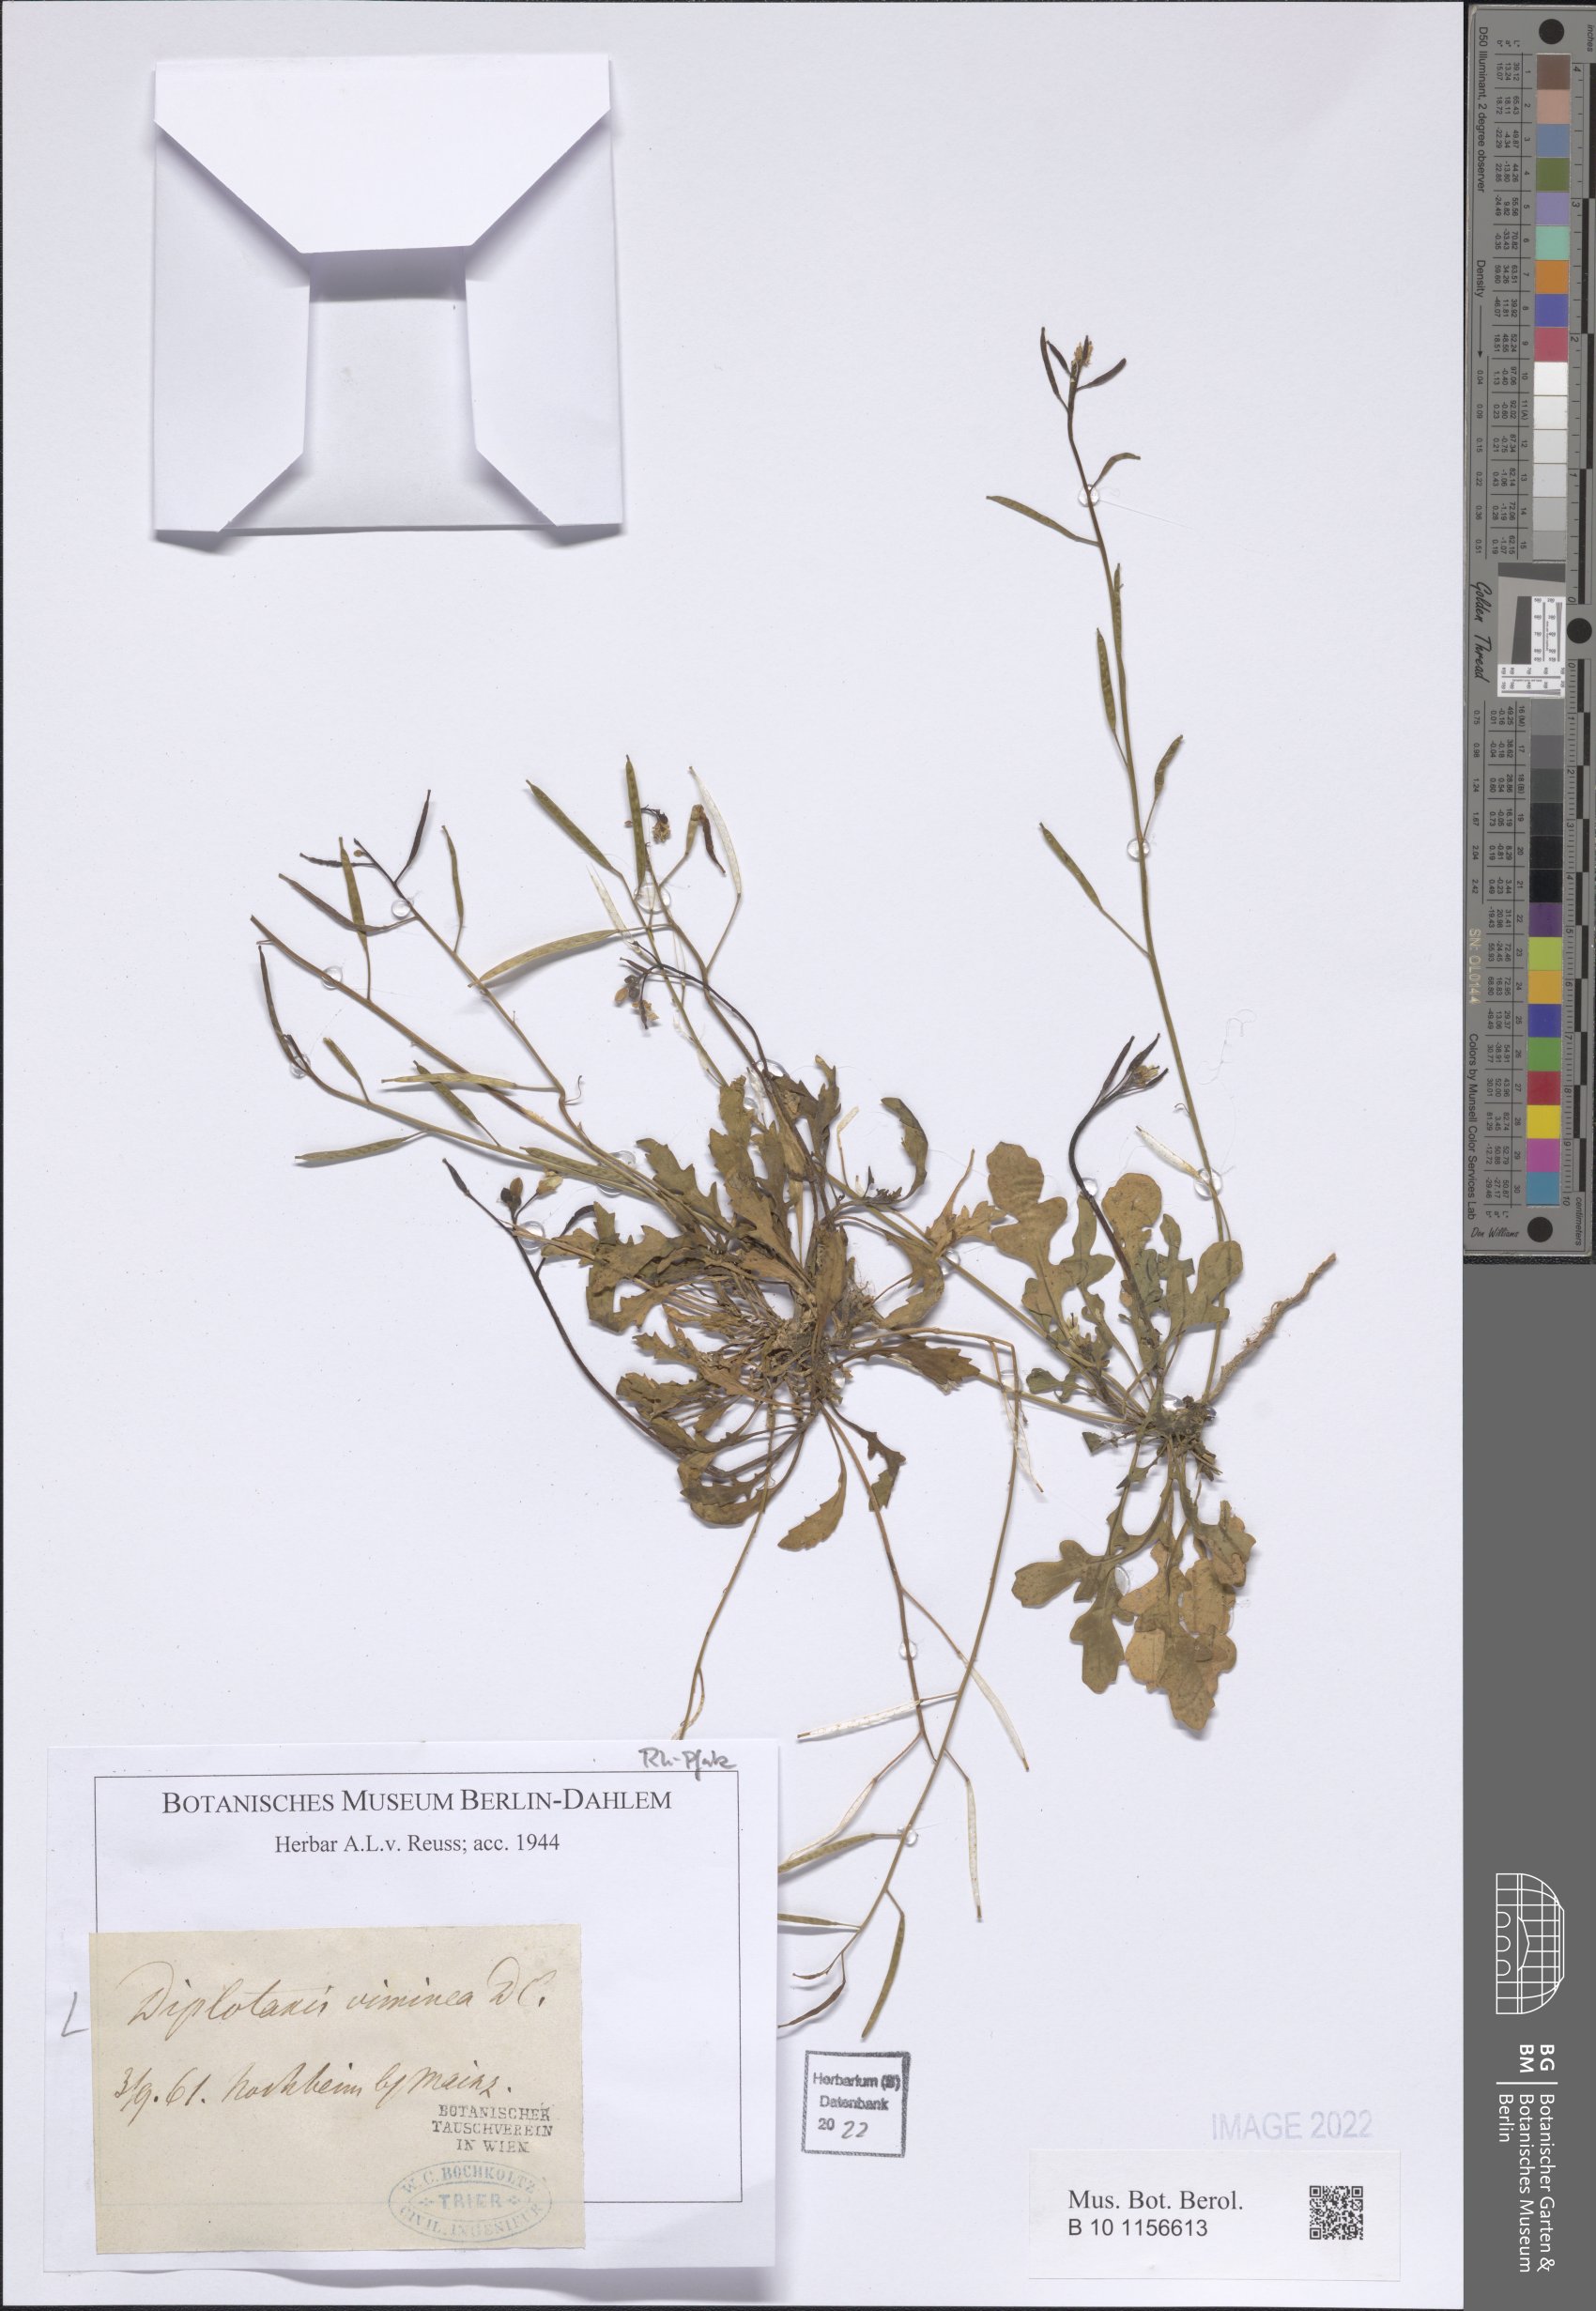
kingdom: Plantae
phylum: Tracheophyta
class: Magnoliopsida
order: Brassicales
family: Brassicaceae
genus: Diplotaxis
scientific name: Diplotaxis viminea
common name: Vineyard wall rocket
